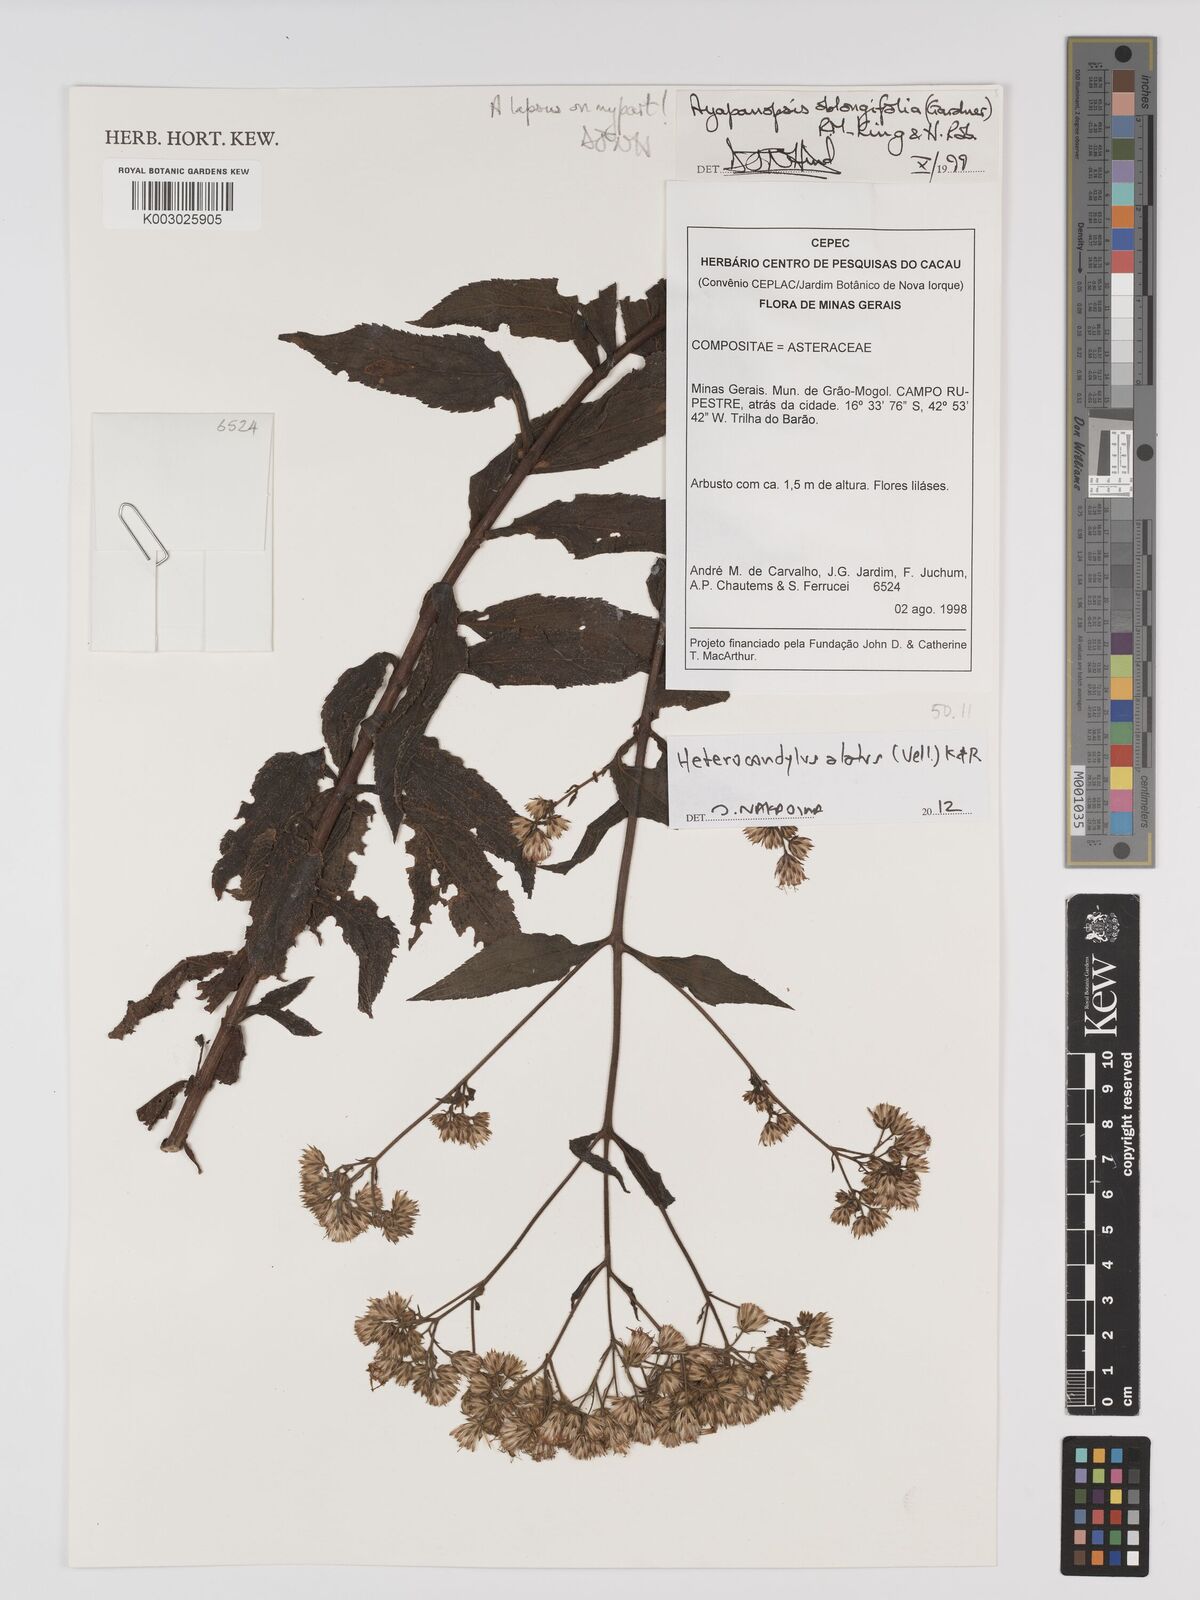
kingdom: Plantae
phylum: Tracheophyta
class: Magnoliopsida
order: Asterales
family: Asteraceae
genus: Heterocondylus
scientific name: Heterocondylus alatus
